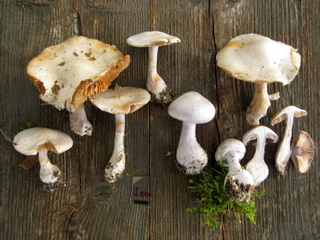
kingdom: Fungi
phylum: Basidiomycota
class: Agaricomycetes
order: Agaricales
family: Cortinariaceae
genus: Cortinarius
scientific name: Cortinarius alboviolaceus
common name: lysviolet slørhat
